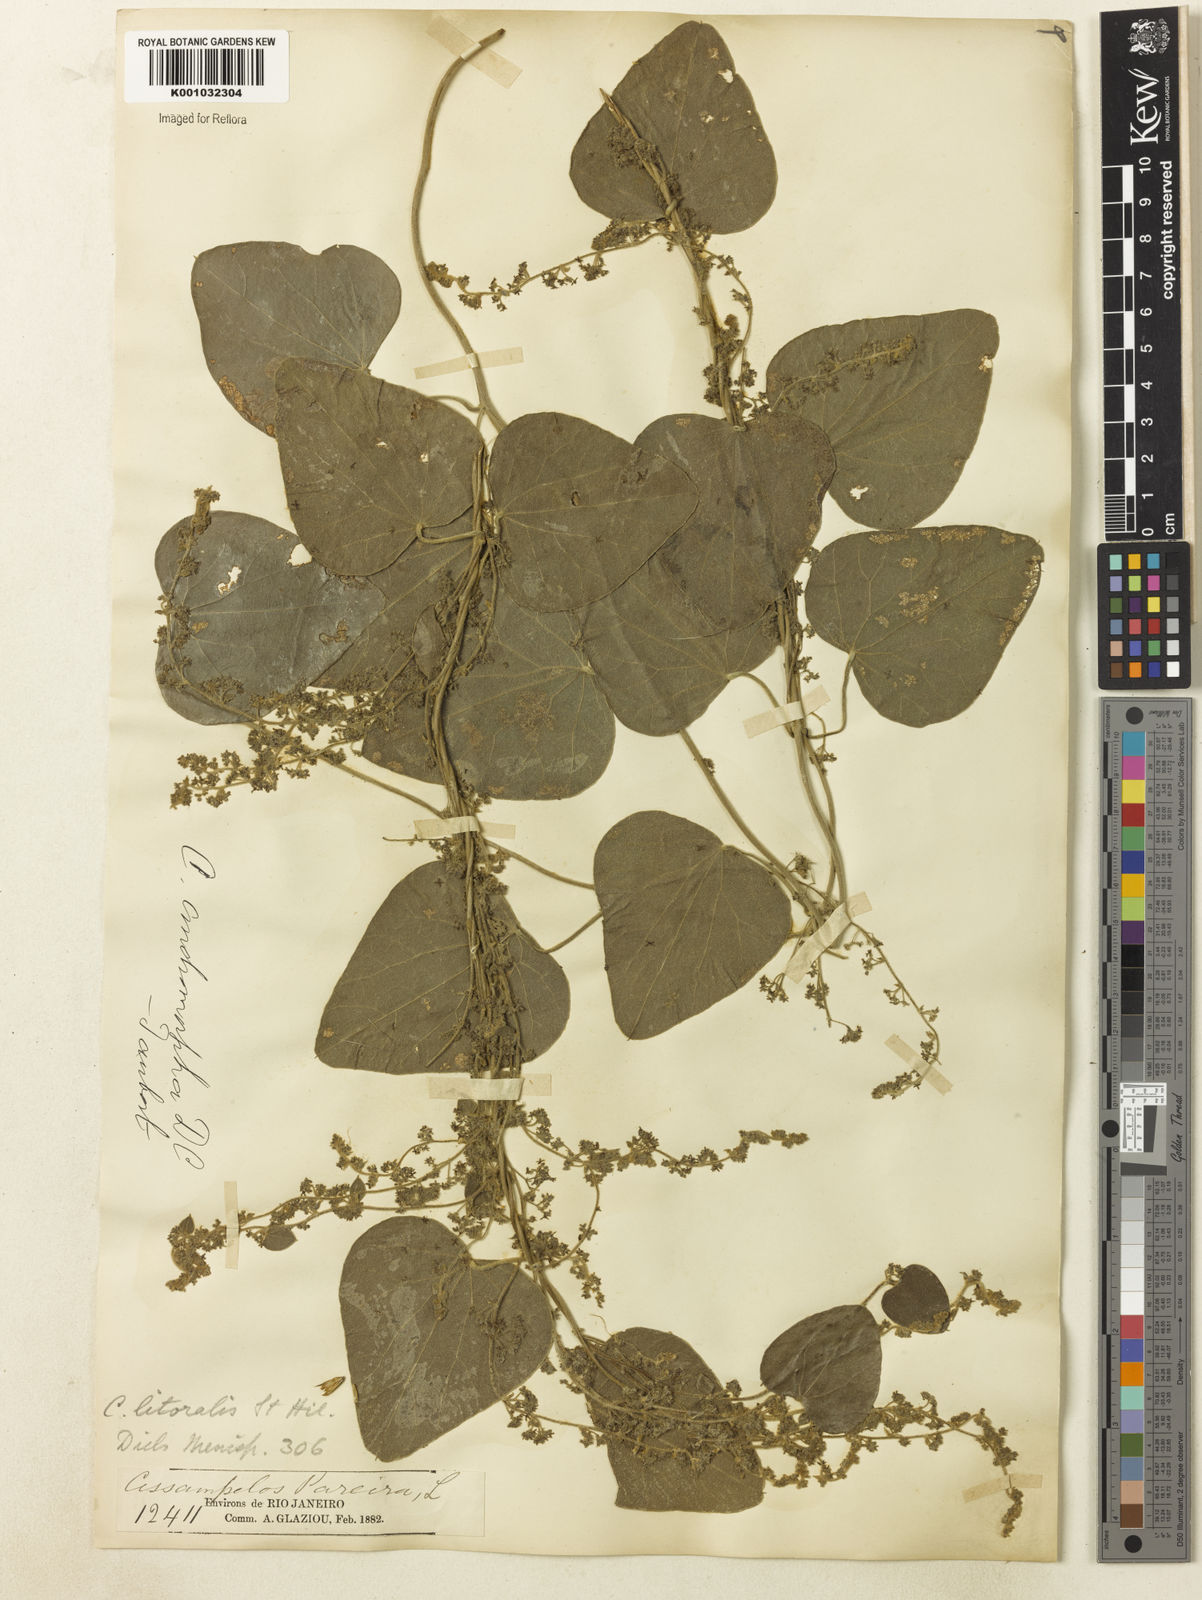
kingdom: Plantae
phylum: Tracheophyta
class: Magnoliopsida
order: Ranunculales
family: Menispermaceae
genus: Cissampelos
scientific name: Cissampelos pareira
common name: Velvetleaf
